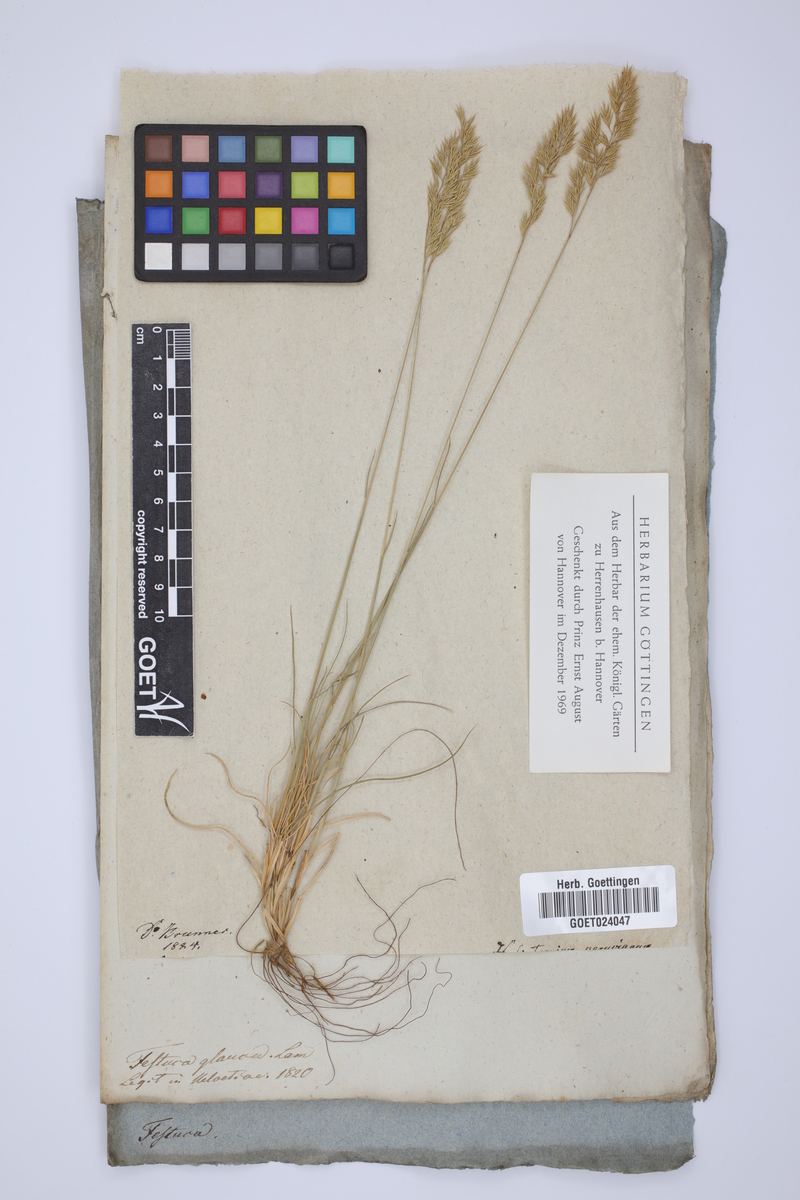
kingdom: Plantae
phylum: Tracheophyta
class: Liliopsida
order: Poales
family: Poaceae
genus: Festuca
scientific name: Festuca
